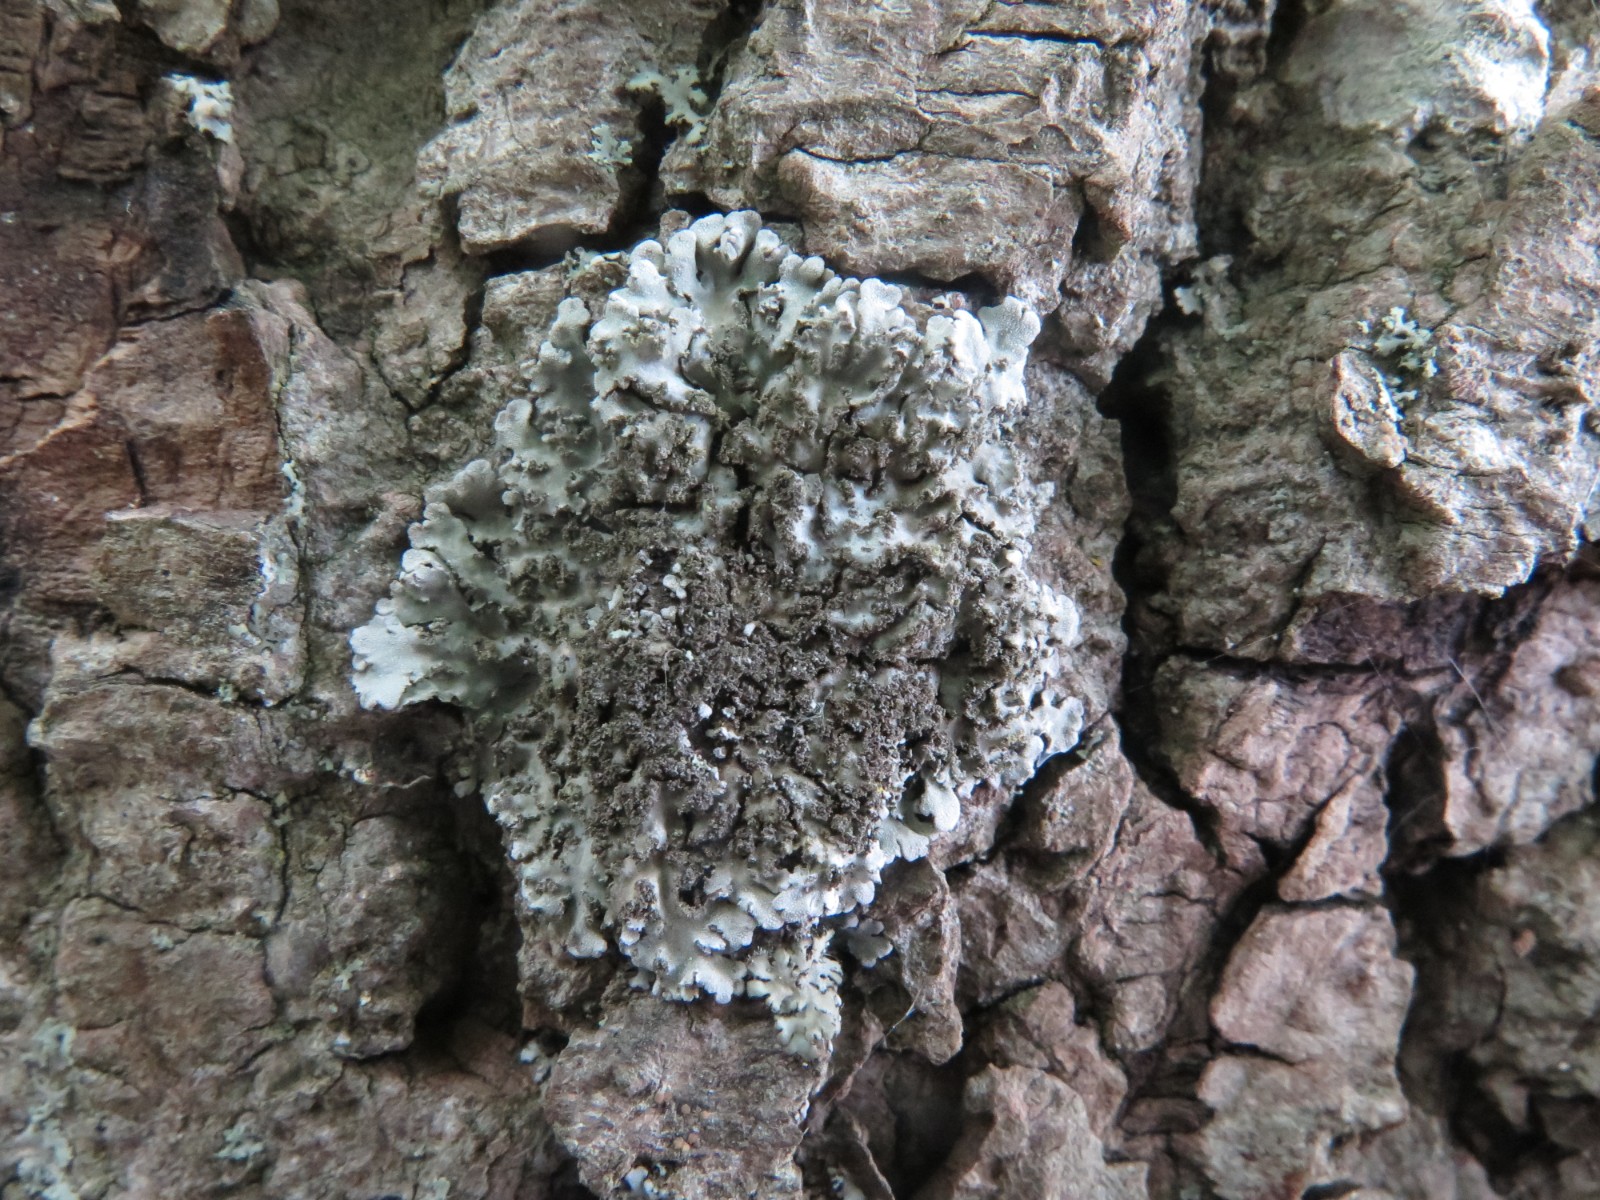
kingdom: Fungi
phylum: Ascomycota
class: Lecanoromycetes
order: Caliciales
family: Physciaceae
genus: Poeltonia
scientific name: Poeltonia grisea
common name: hvidgrå dugrosetlav
